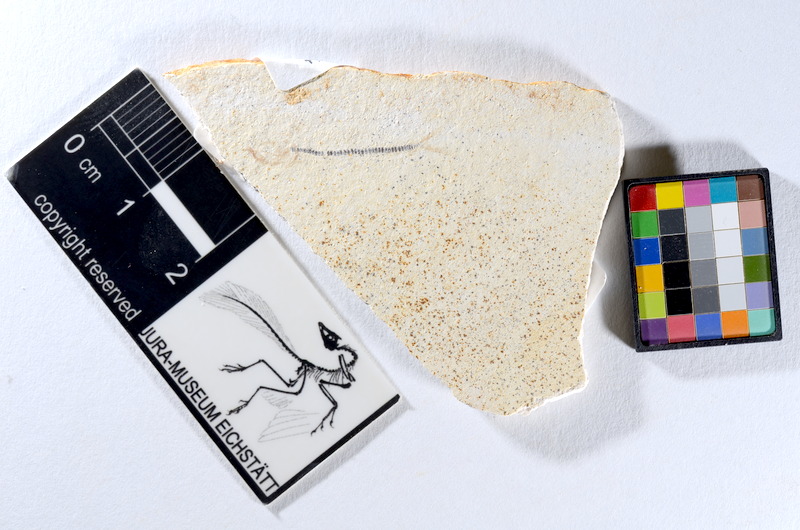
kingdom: Animalia
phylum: Chordata
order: Salmoniformes
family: Orthogonikleithridae
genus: Orthogonikleithrus
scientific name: Orthogonikleithrus hoelli
